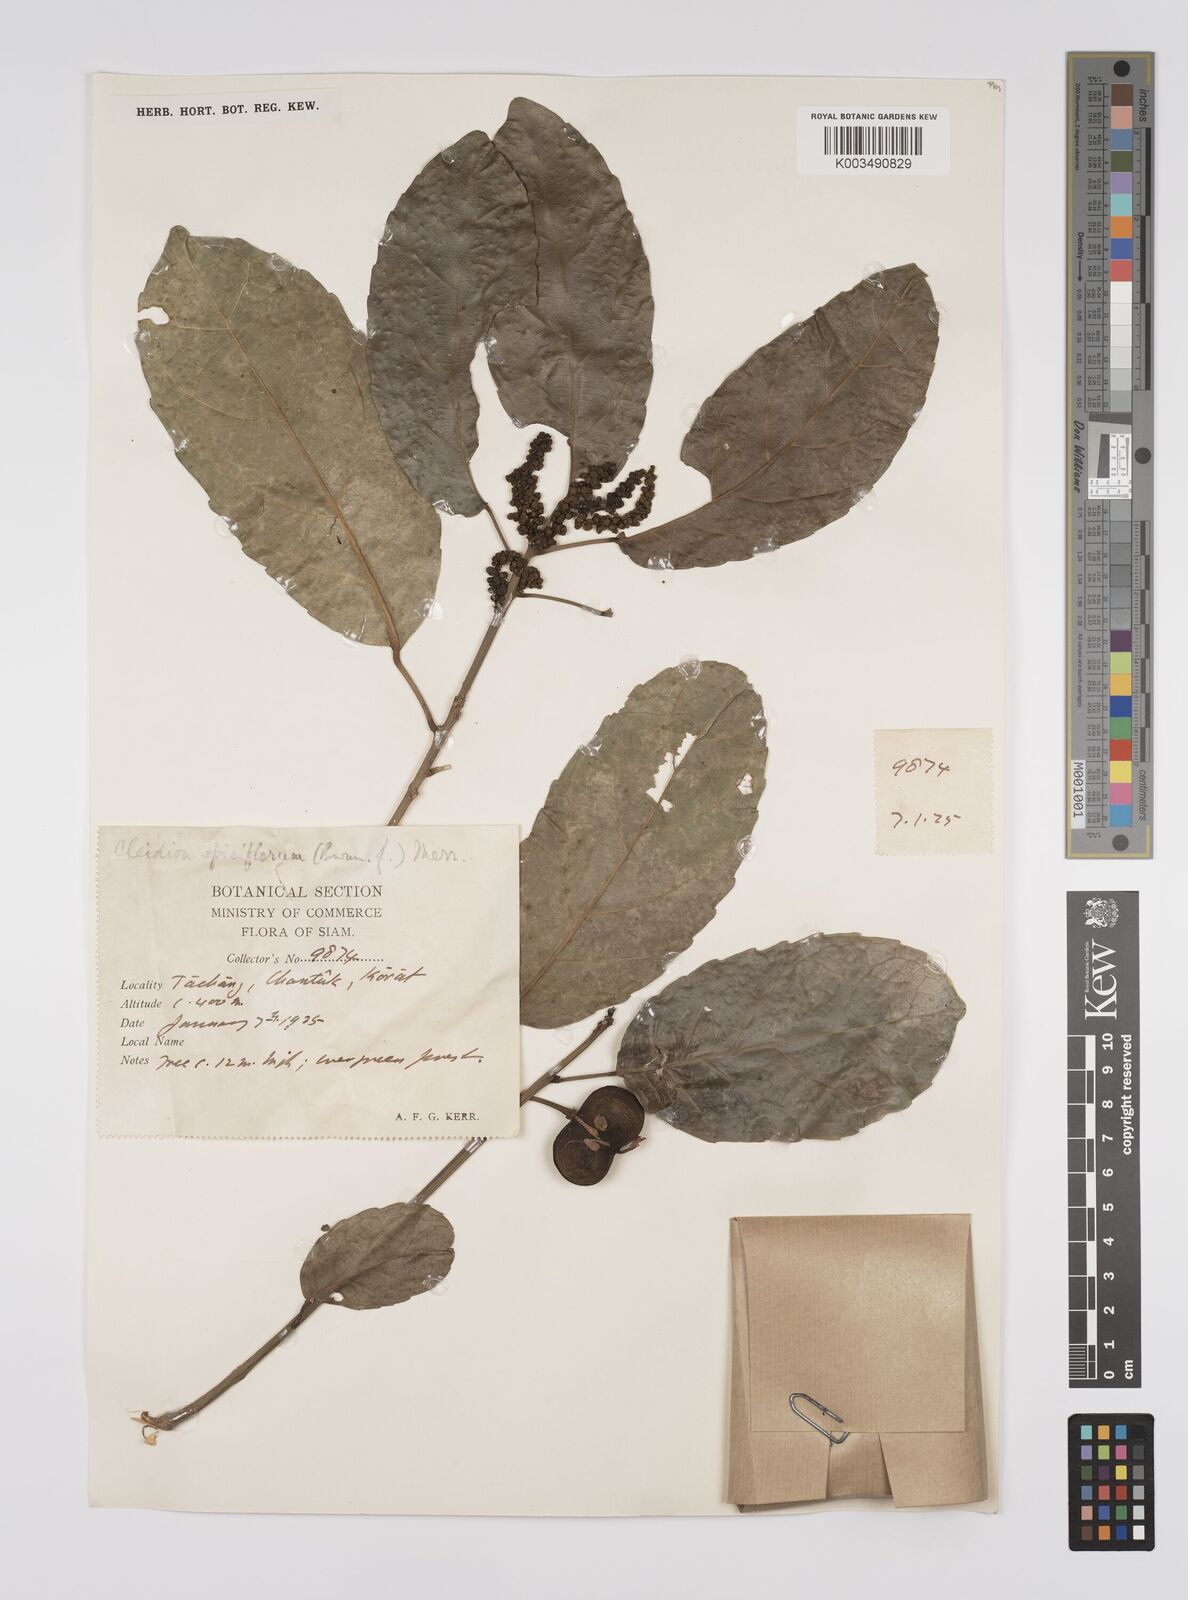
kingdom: Plantae
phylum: Tracheophyta
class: Magnoliopsida
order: Malpighiales
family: Euphorbiaceae
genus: Acalypha
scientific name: Acalypha spiciflora
